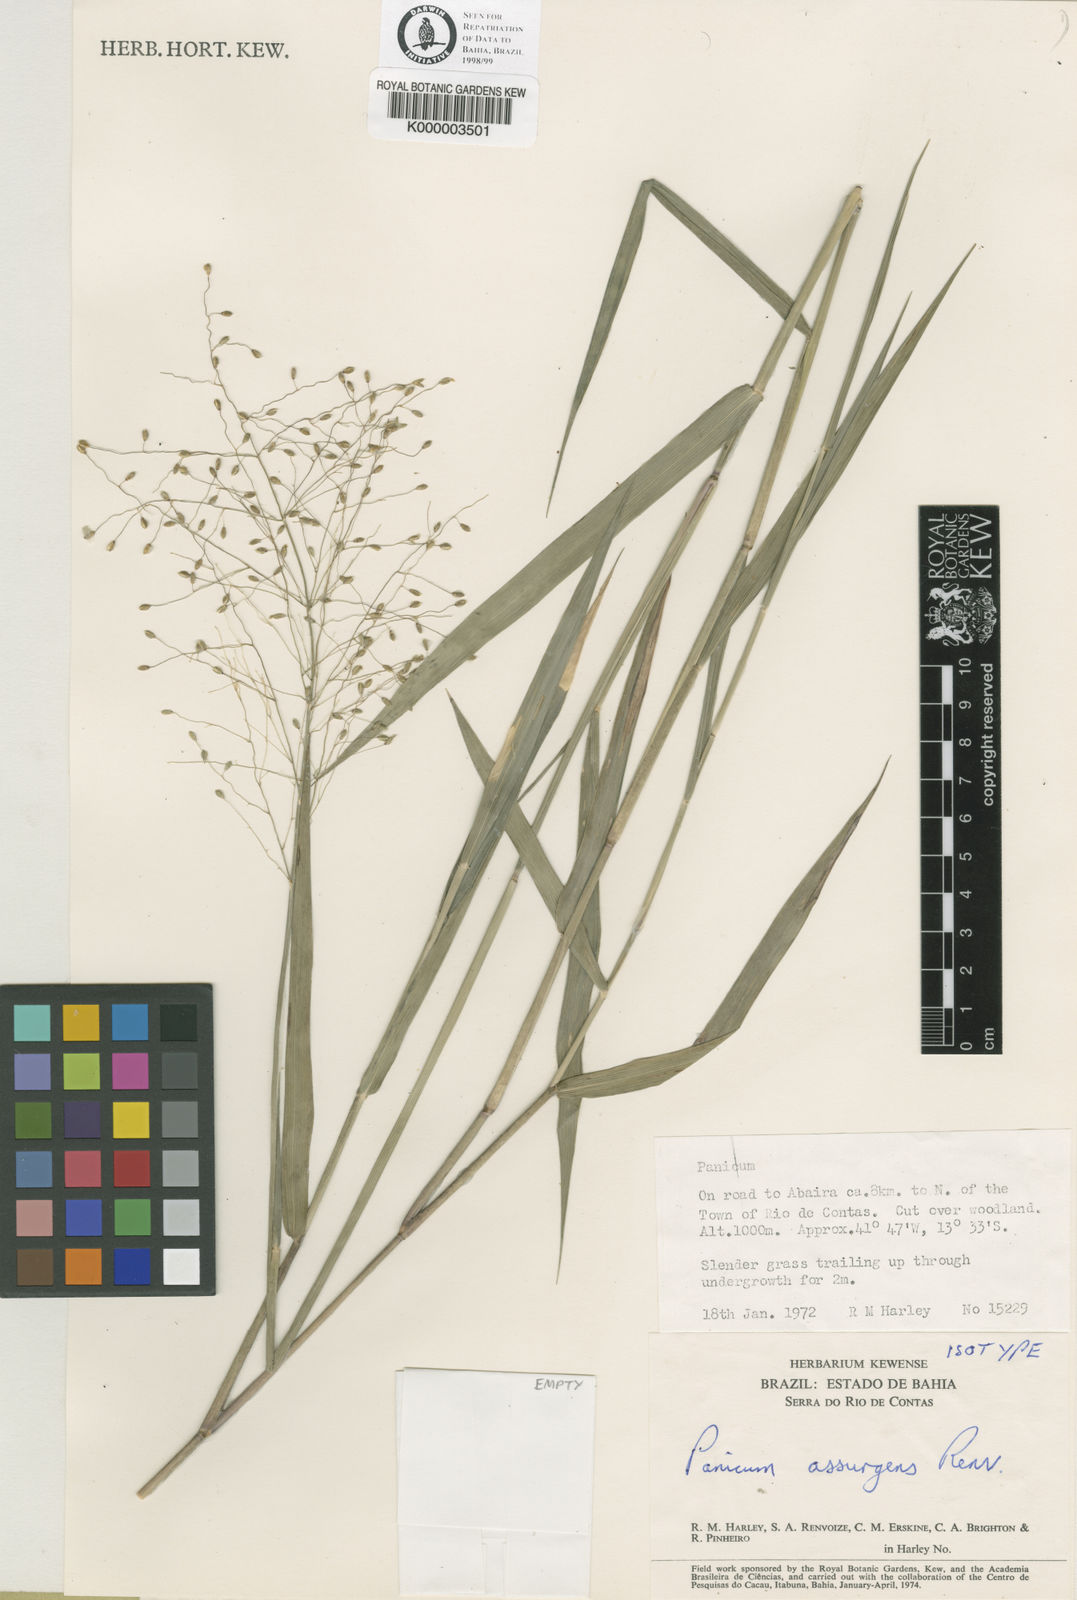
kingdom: Plantae
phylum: Tracheophyta
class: Liliopsida
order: Poales
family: Poaceae
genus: Dichanthelium
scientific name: Dichanthelium assurgens
